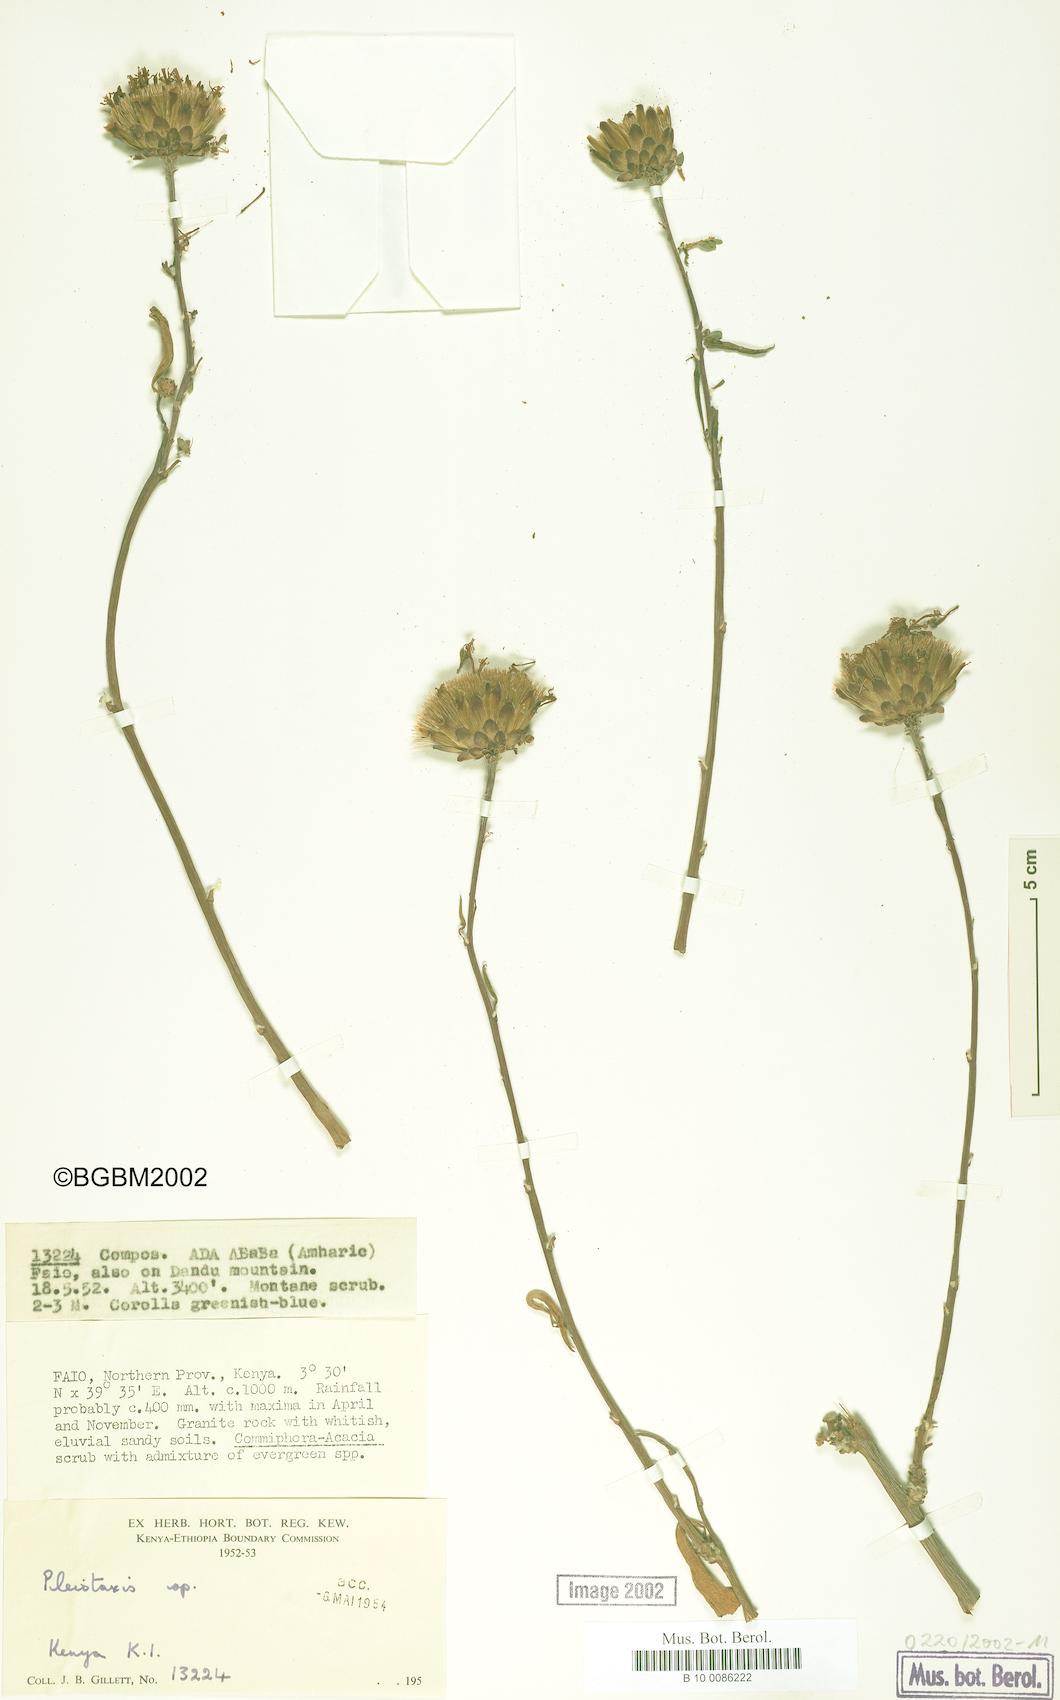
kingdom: Plantae
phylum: Tracheophyta
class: Magnoliopsida
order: Asterales
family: Asteraceae
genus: Pleiotaxis
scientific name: Pleiotaxis
